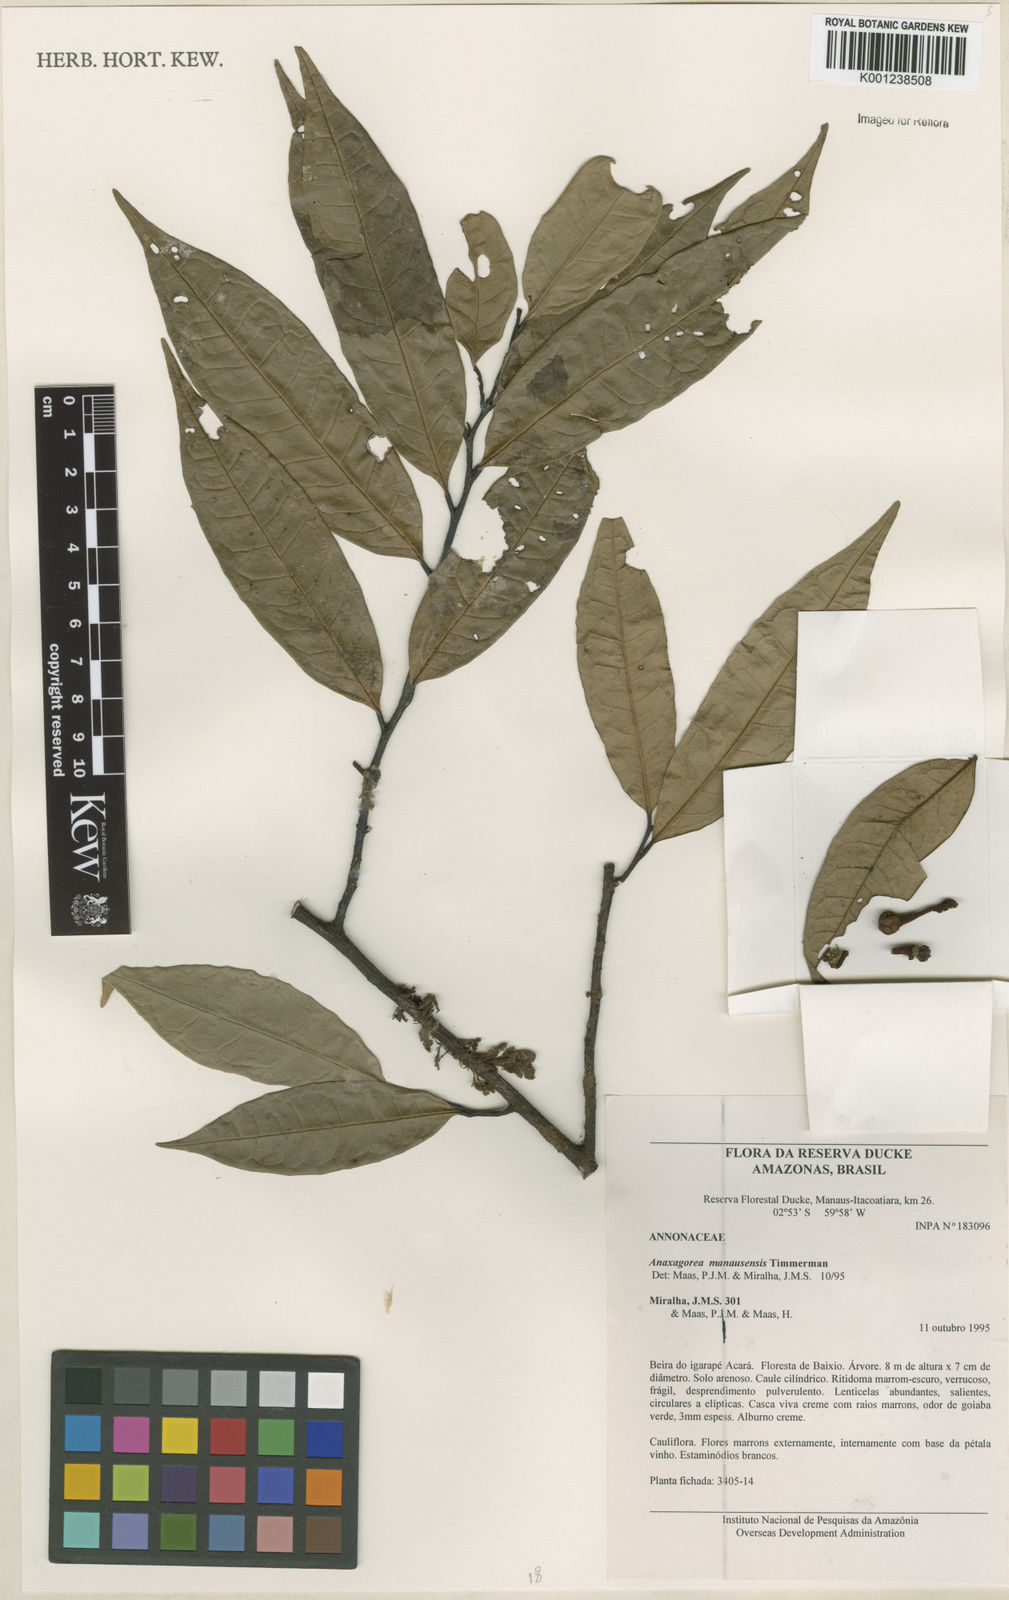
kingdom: Plantae
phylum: Tracheophyta
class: Magnoliopsida
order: Magnoliales
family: Annonaceae
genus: Anaxagorea
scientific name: Anaxagorea manausensis
